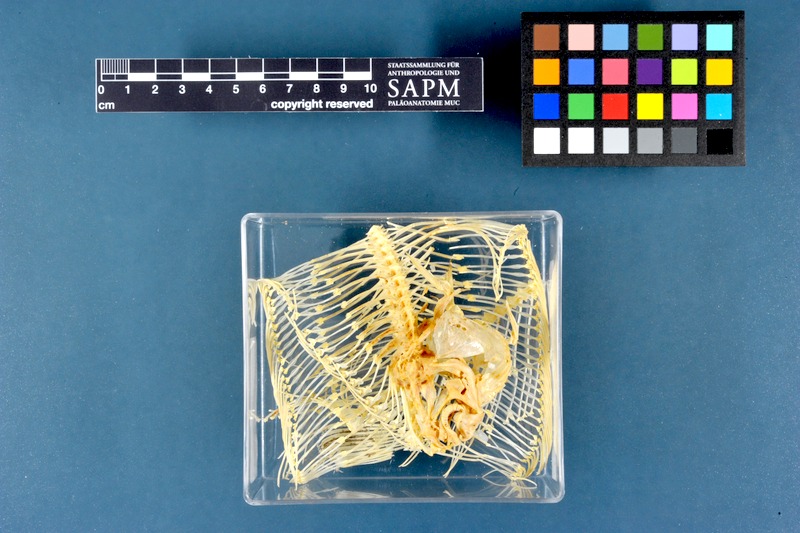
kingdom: Animalia
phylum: Chordata
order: Pleuronectiformes
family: Soleidae
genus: Solea
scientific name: Solea solea
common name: Sole
